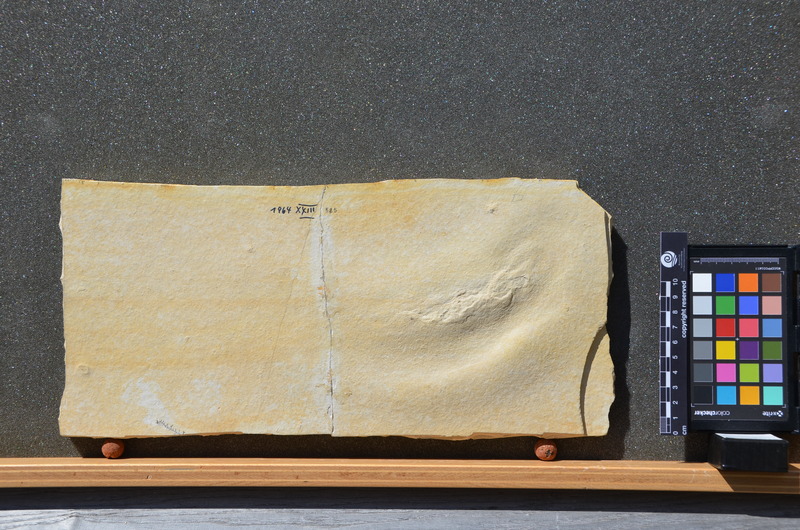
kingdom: Animalia
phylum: Chordata
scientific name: Chordata
